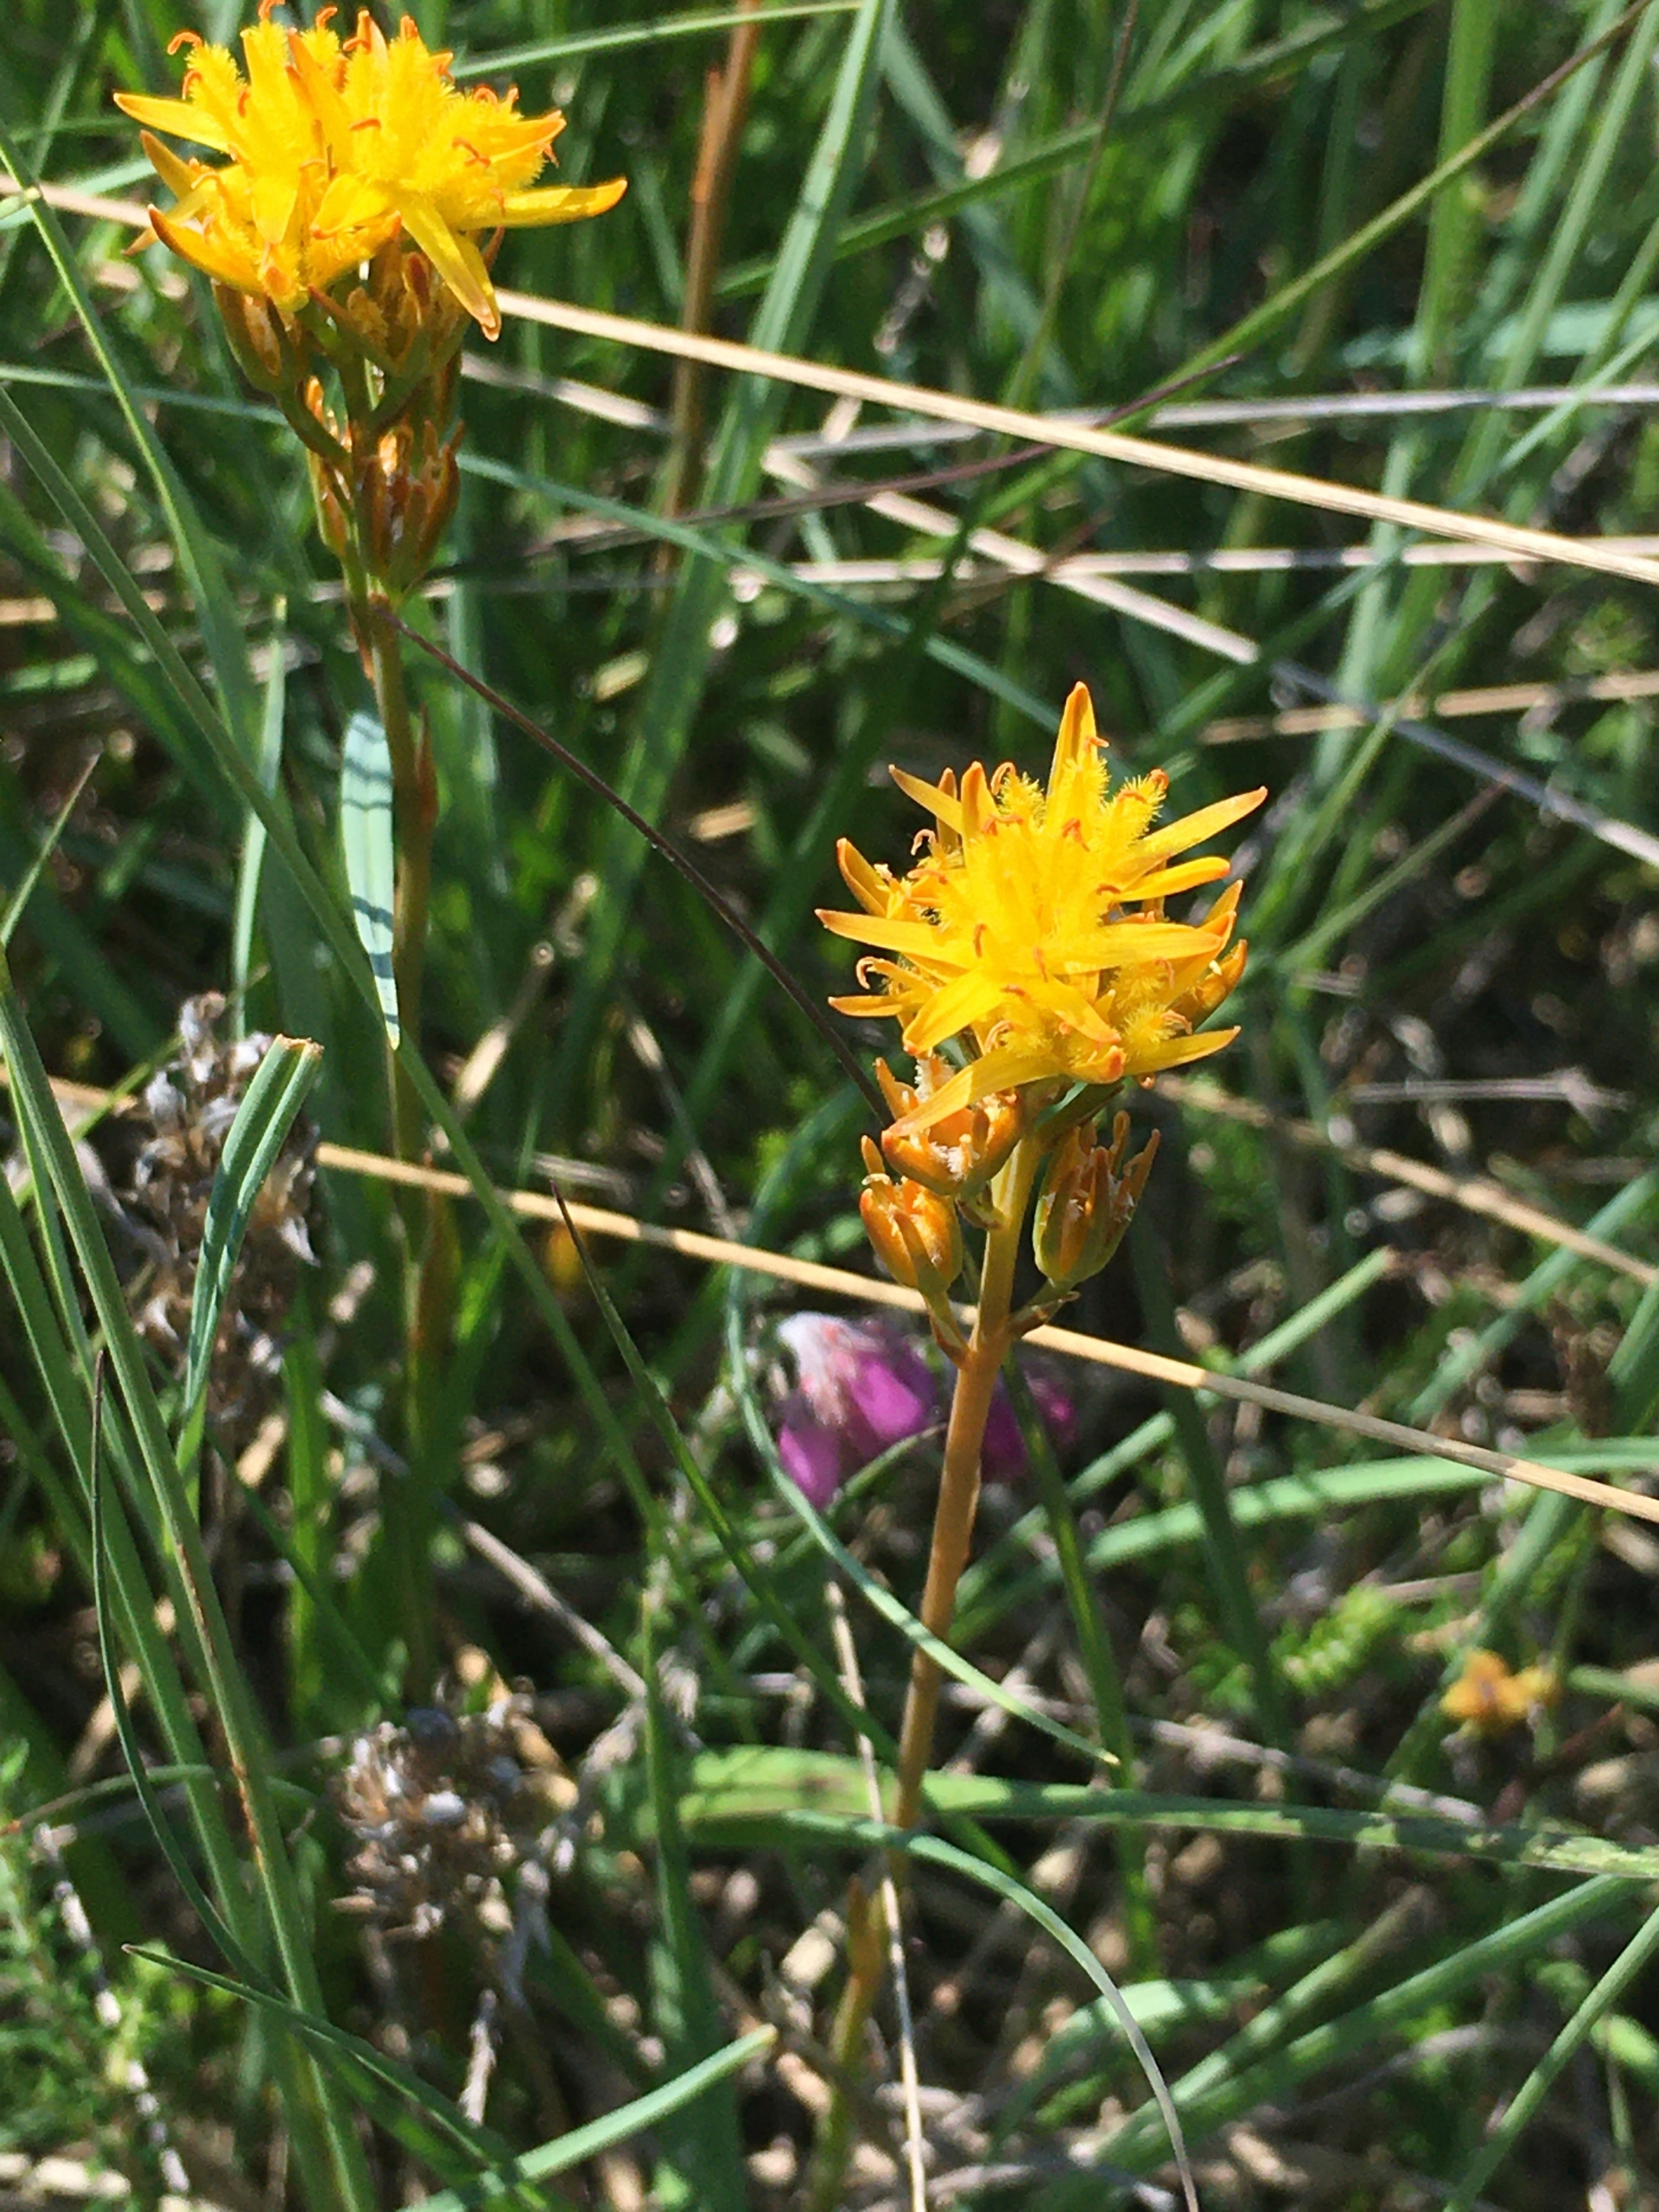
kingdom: Plantae
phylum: Tracheophyta
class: Liliopsida
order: Dioscoreales
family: Nartheciaceae
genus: Narthecium
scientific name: Narthecium ossifragum
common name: Benbræk
